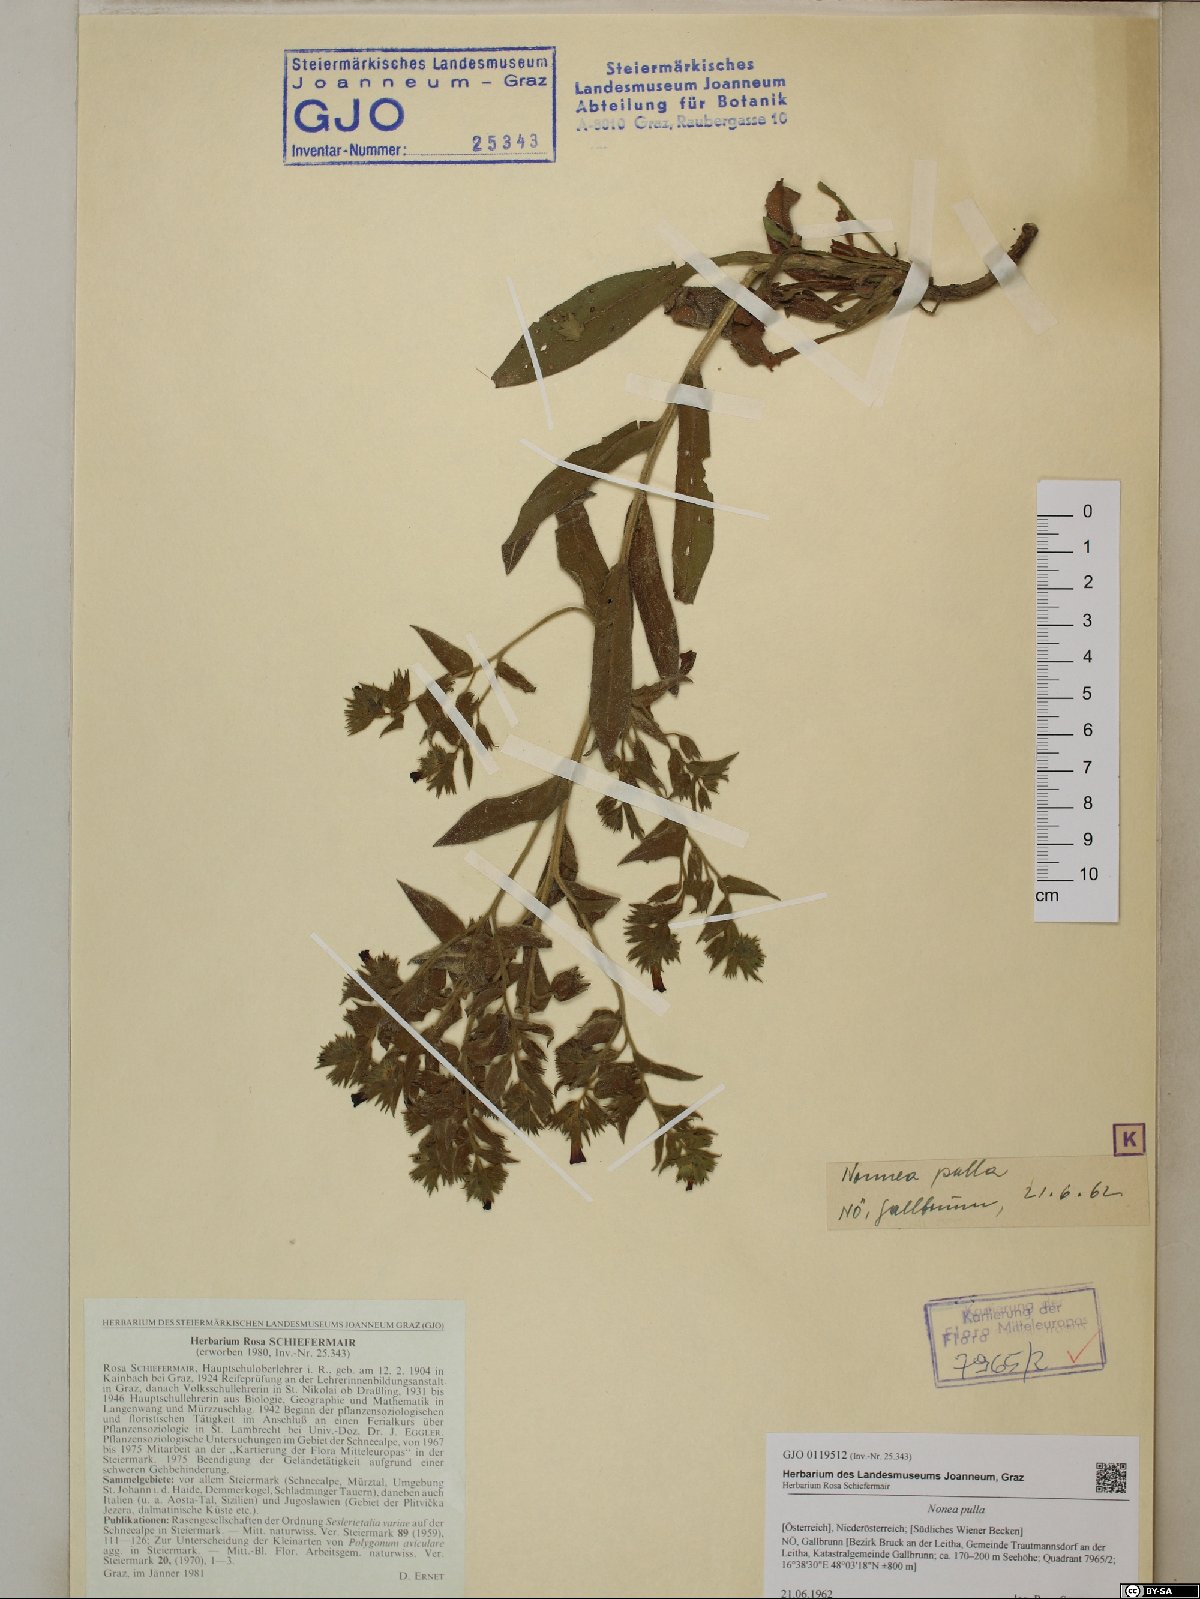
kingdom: Plantae
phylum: Tracheophyta
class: Magnoliopsida
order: Boraginales
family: Boraginaceae
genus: Nonea
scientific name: Nonea pulla
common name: Brown nonea
